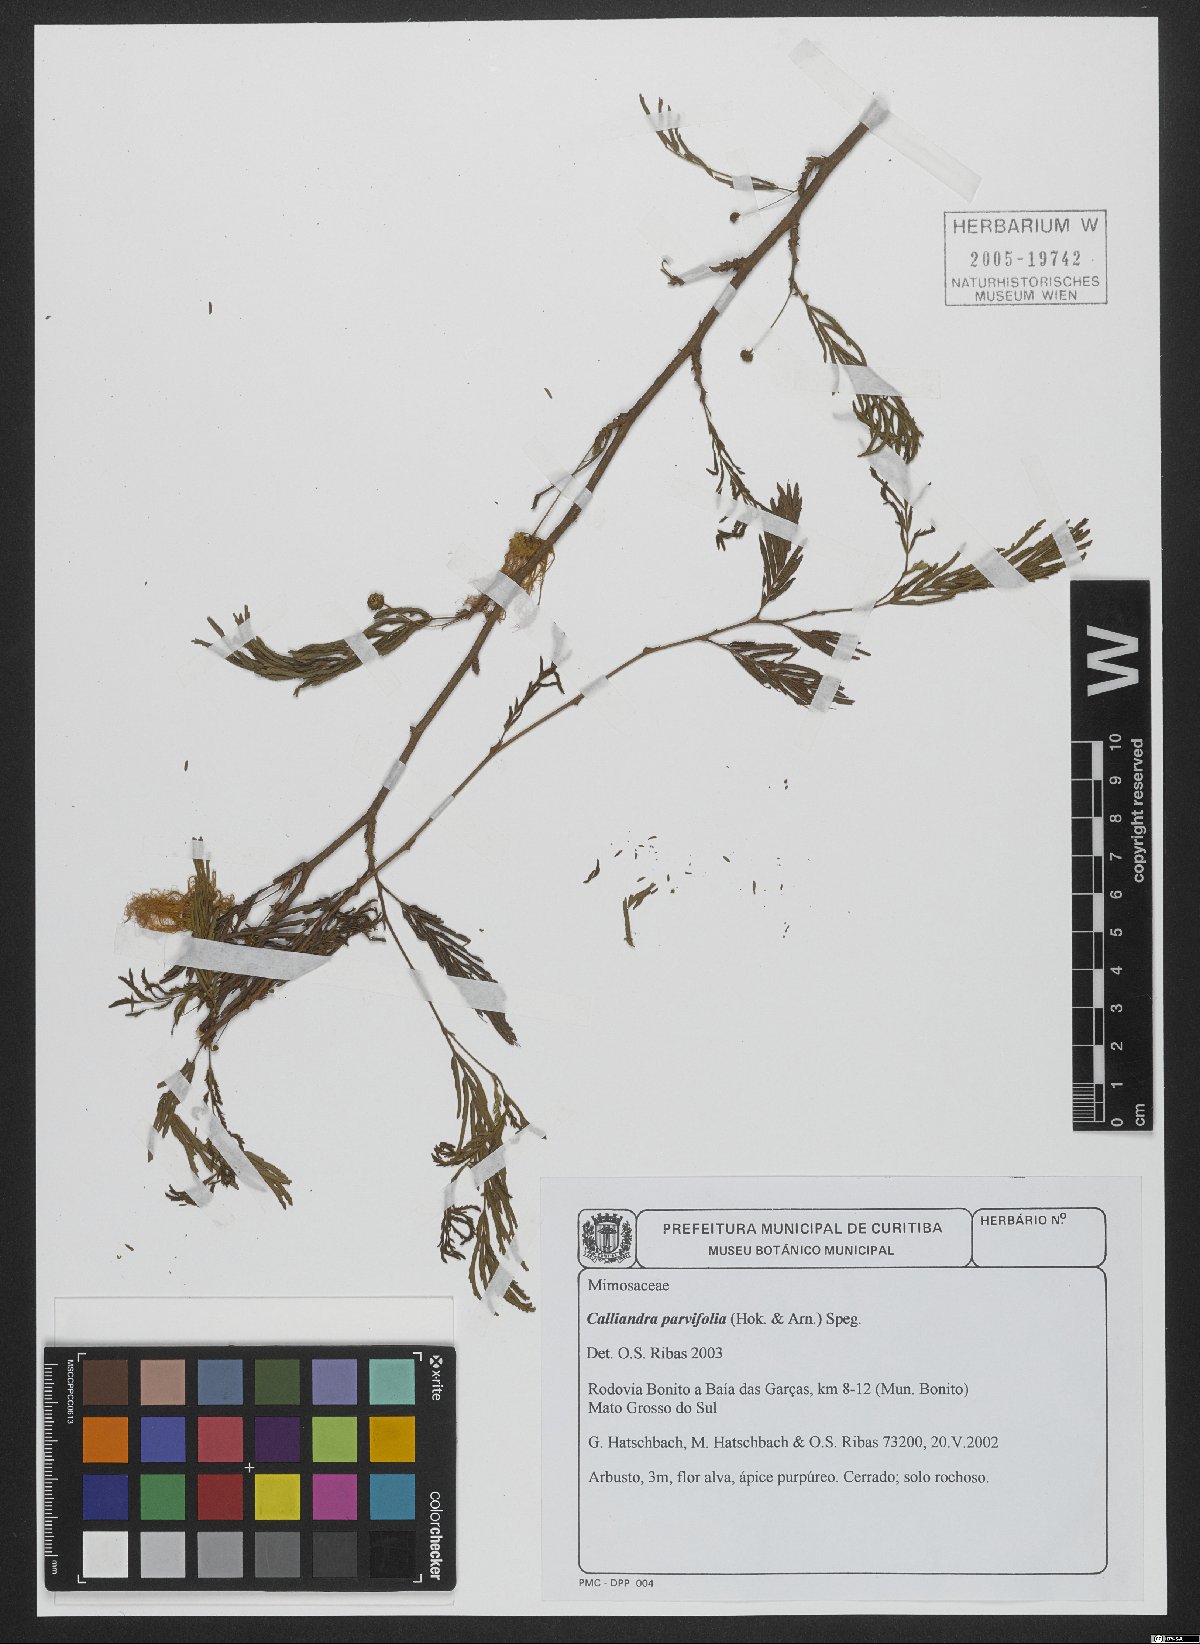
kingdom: Plantae
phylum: Tracheophyta
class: Magnoliopsida
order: Fabales
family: Fabaceae
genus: Calliandra
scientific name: Calliandra parviflora
